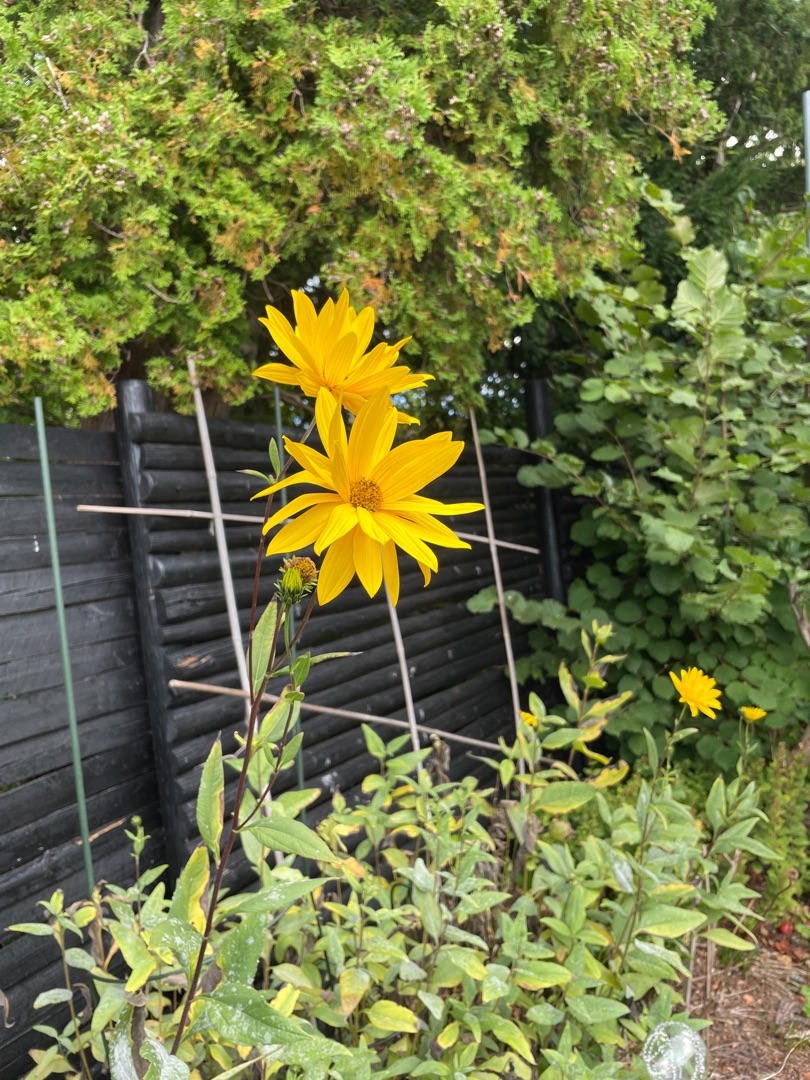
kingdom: Plantae
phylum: Tracheophyta
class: Magnoliopsida
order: Asterales
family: Asteraceae
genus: Helianthus
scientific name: Helianthus tuberosus
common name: Jordskok
